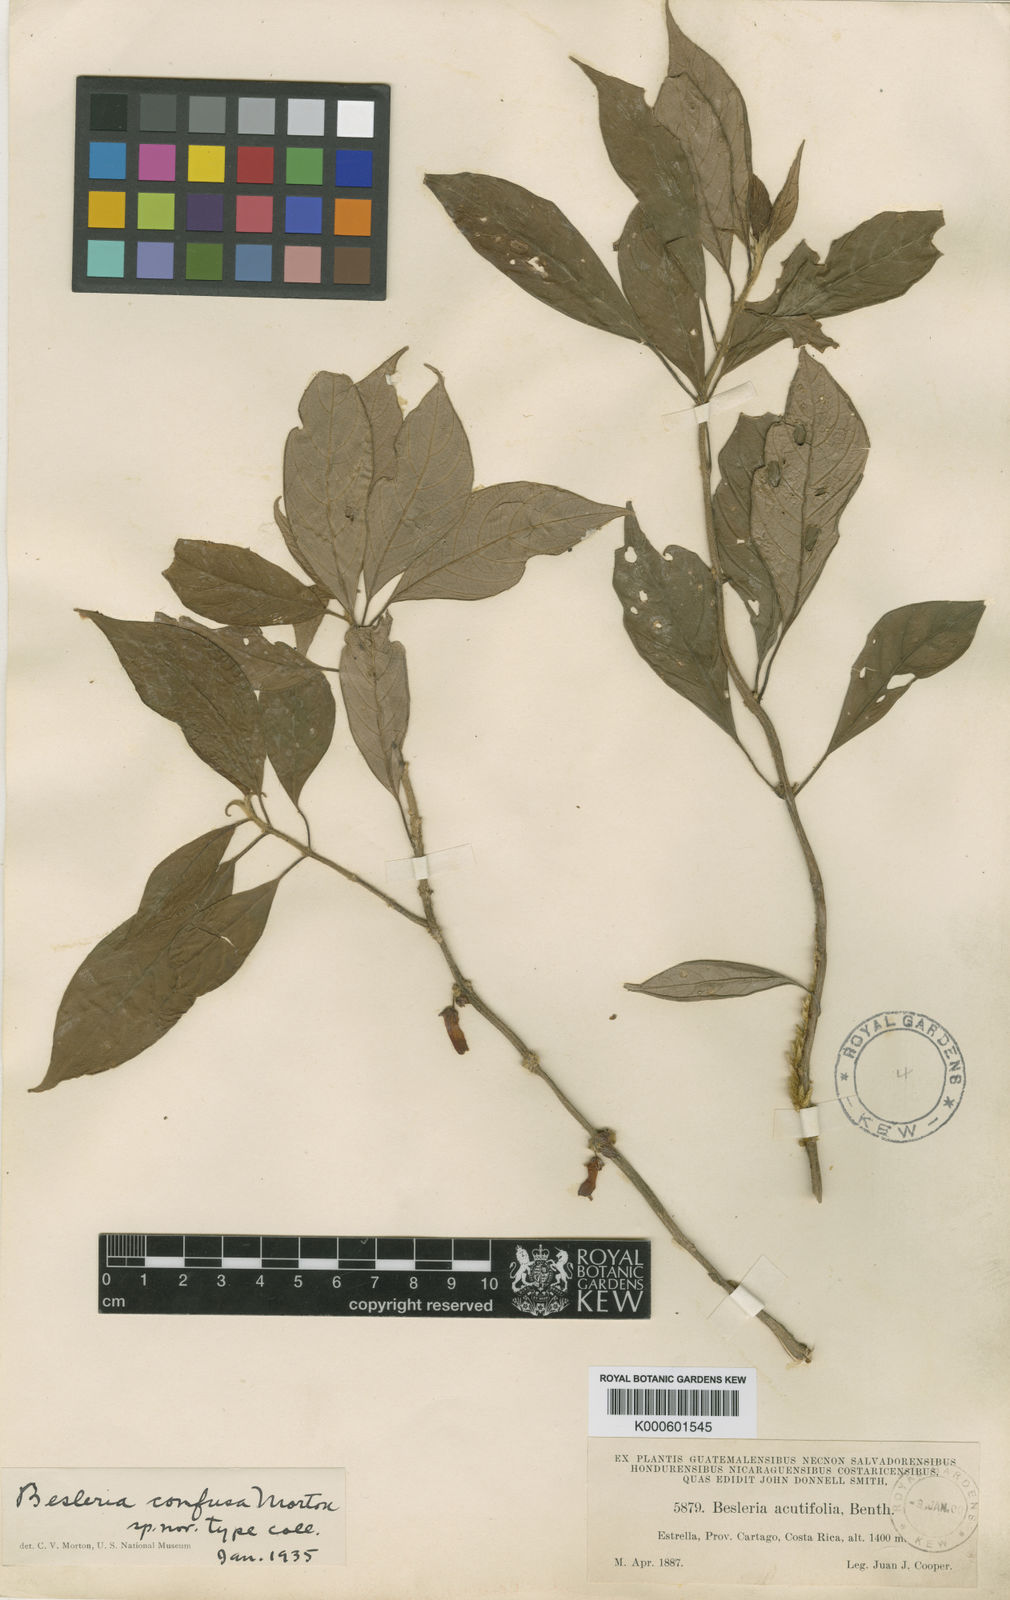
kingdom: Plantae
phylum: Tracheophyta
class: Magnoliopsida
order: Lamiales
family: Gesneriaceae
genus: Besleria
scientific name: Besleria
